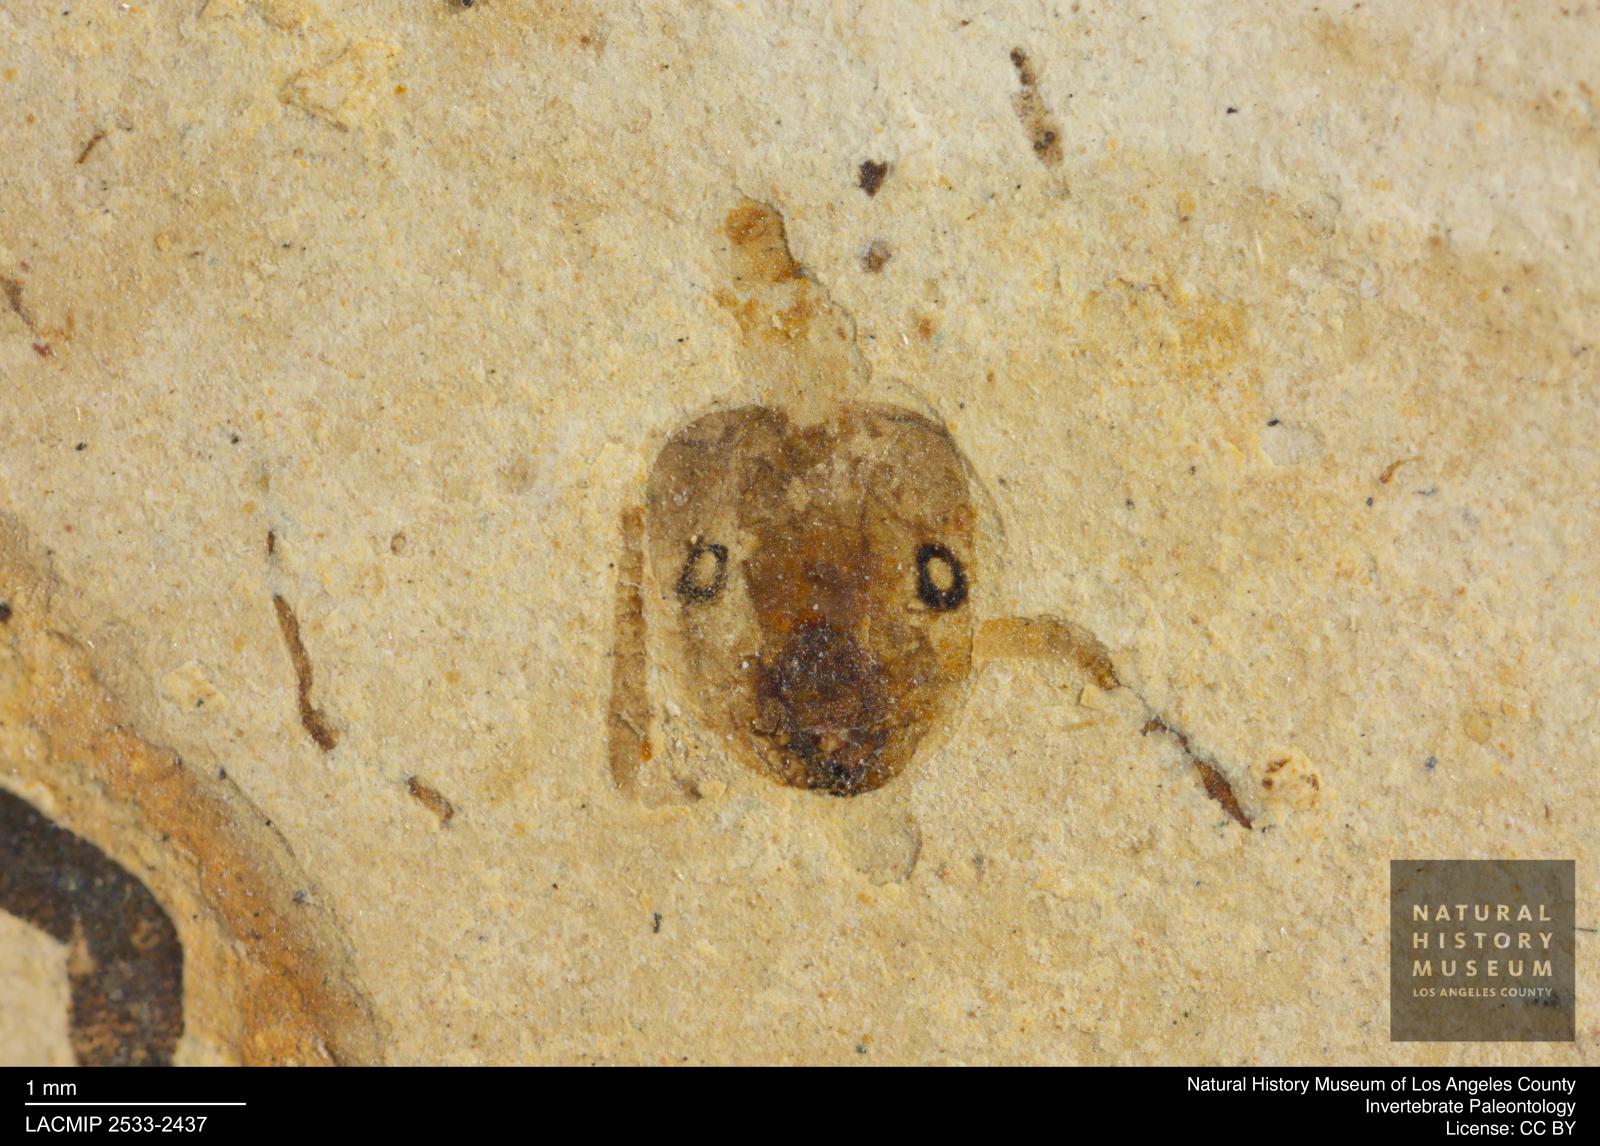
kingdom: Animalia
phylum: Arthropoda
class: Insecta
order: Hymenoptera
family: Formicidae
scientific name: Formicidae
